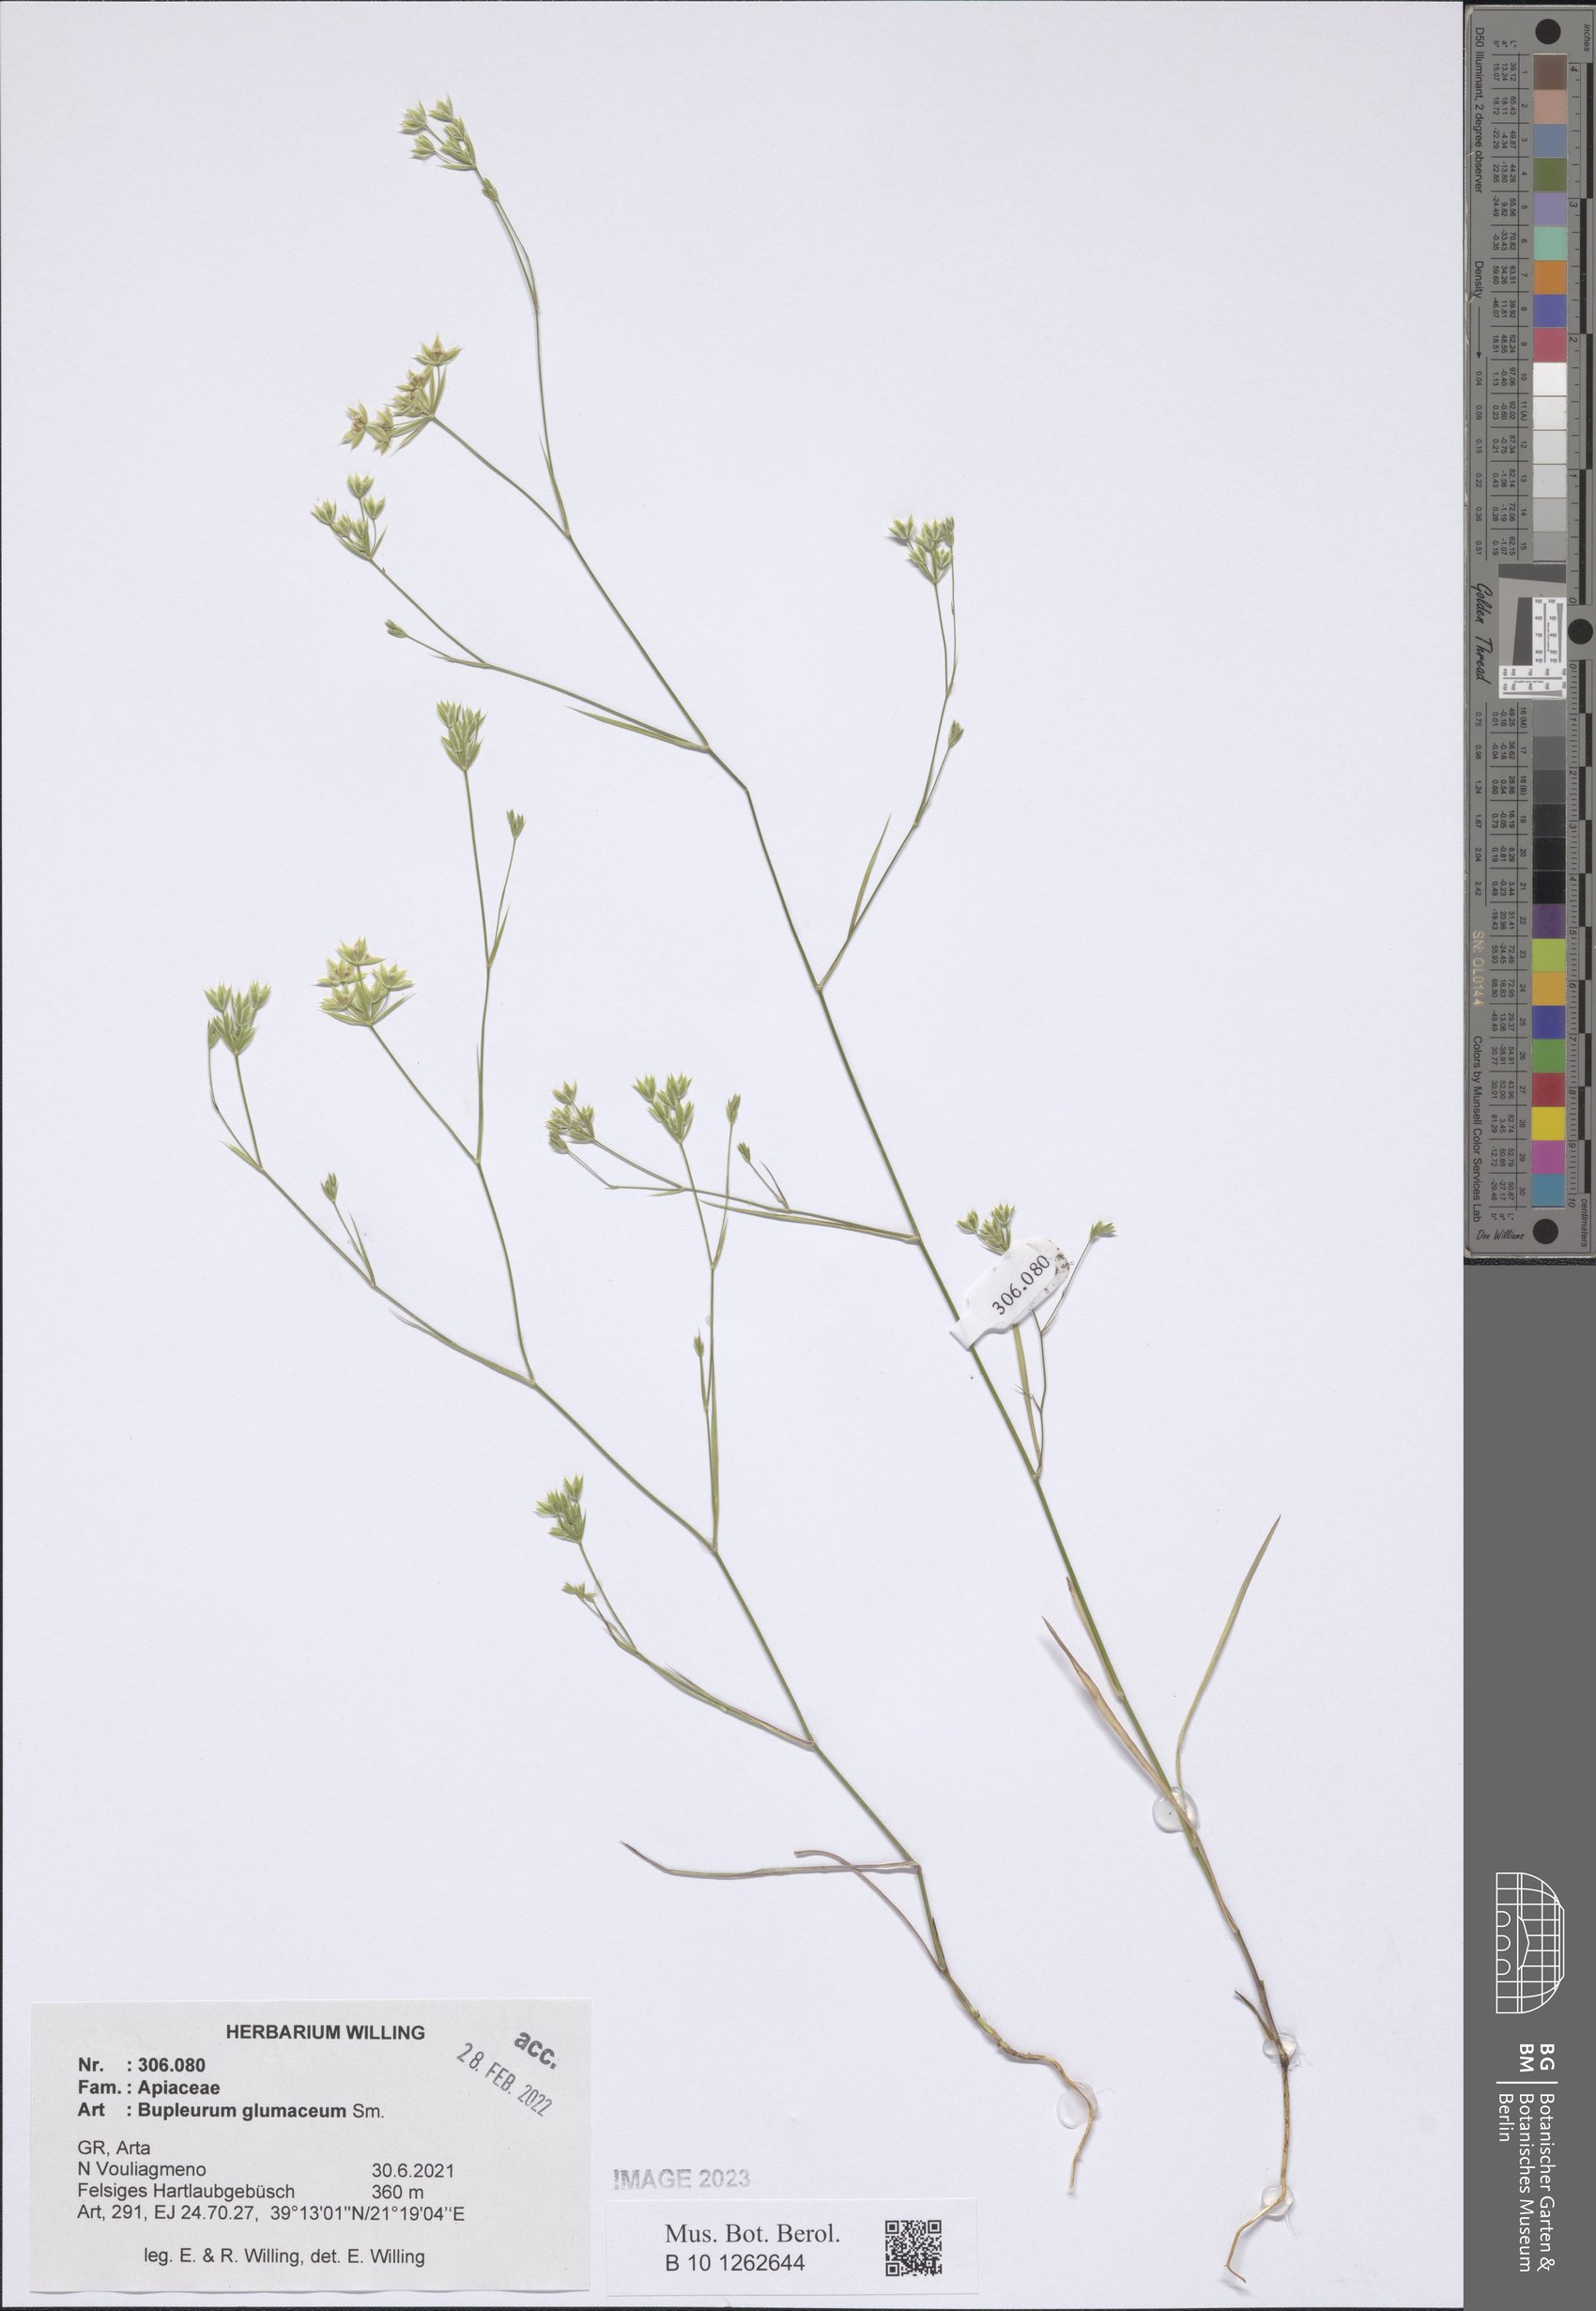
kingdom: Plantae
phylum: Tracheophyta
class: Magnoliopsida
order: Apiales
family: Apiaceae
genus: Bupleurum
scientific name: Bupleurum glumaceum
